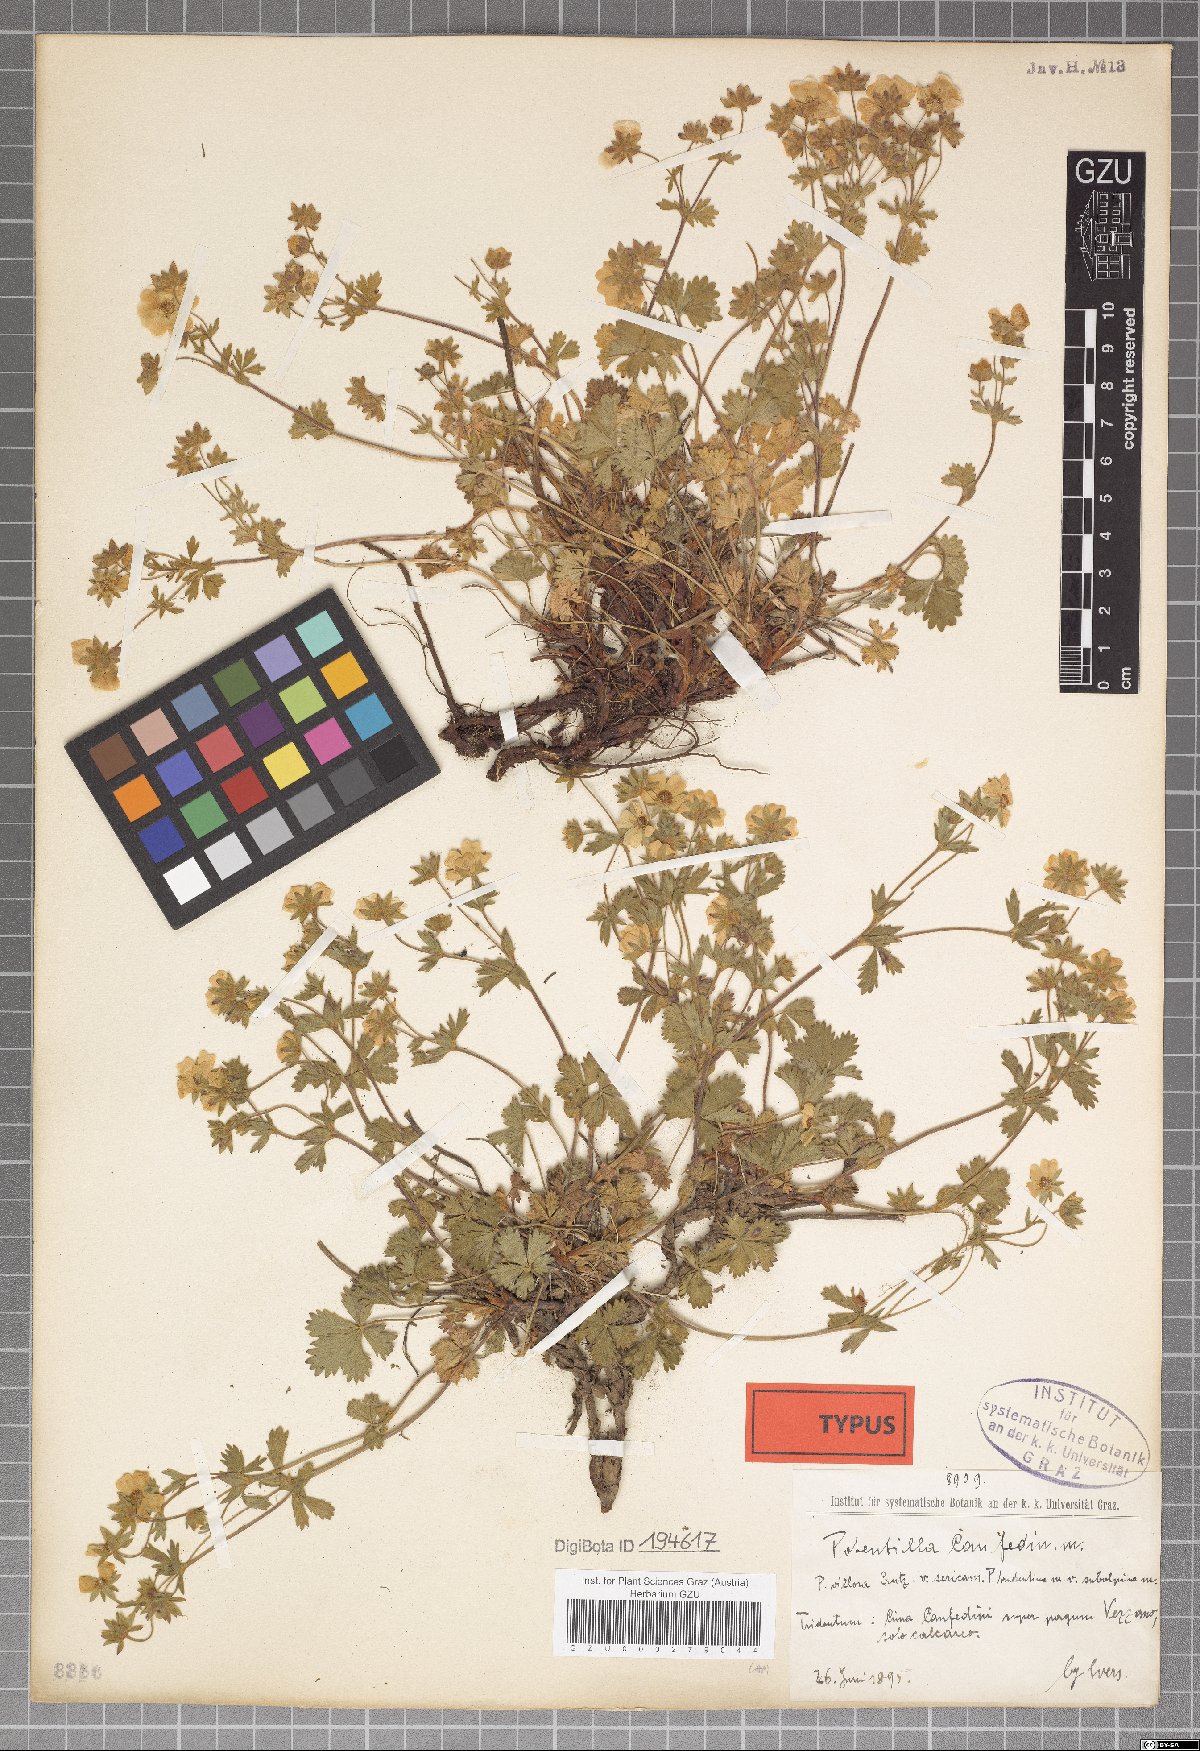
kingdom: Plantae
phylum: Tracheophyta
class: Magnoliopsida
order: Rosales
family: Rosaceae
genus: Potentilla
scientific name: Potentilla crantzii
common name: Alpine cinquefoil
